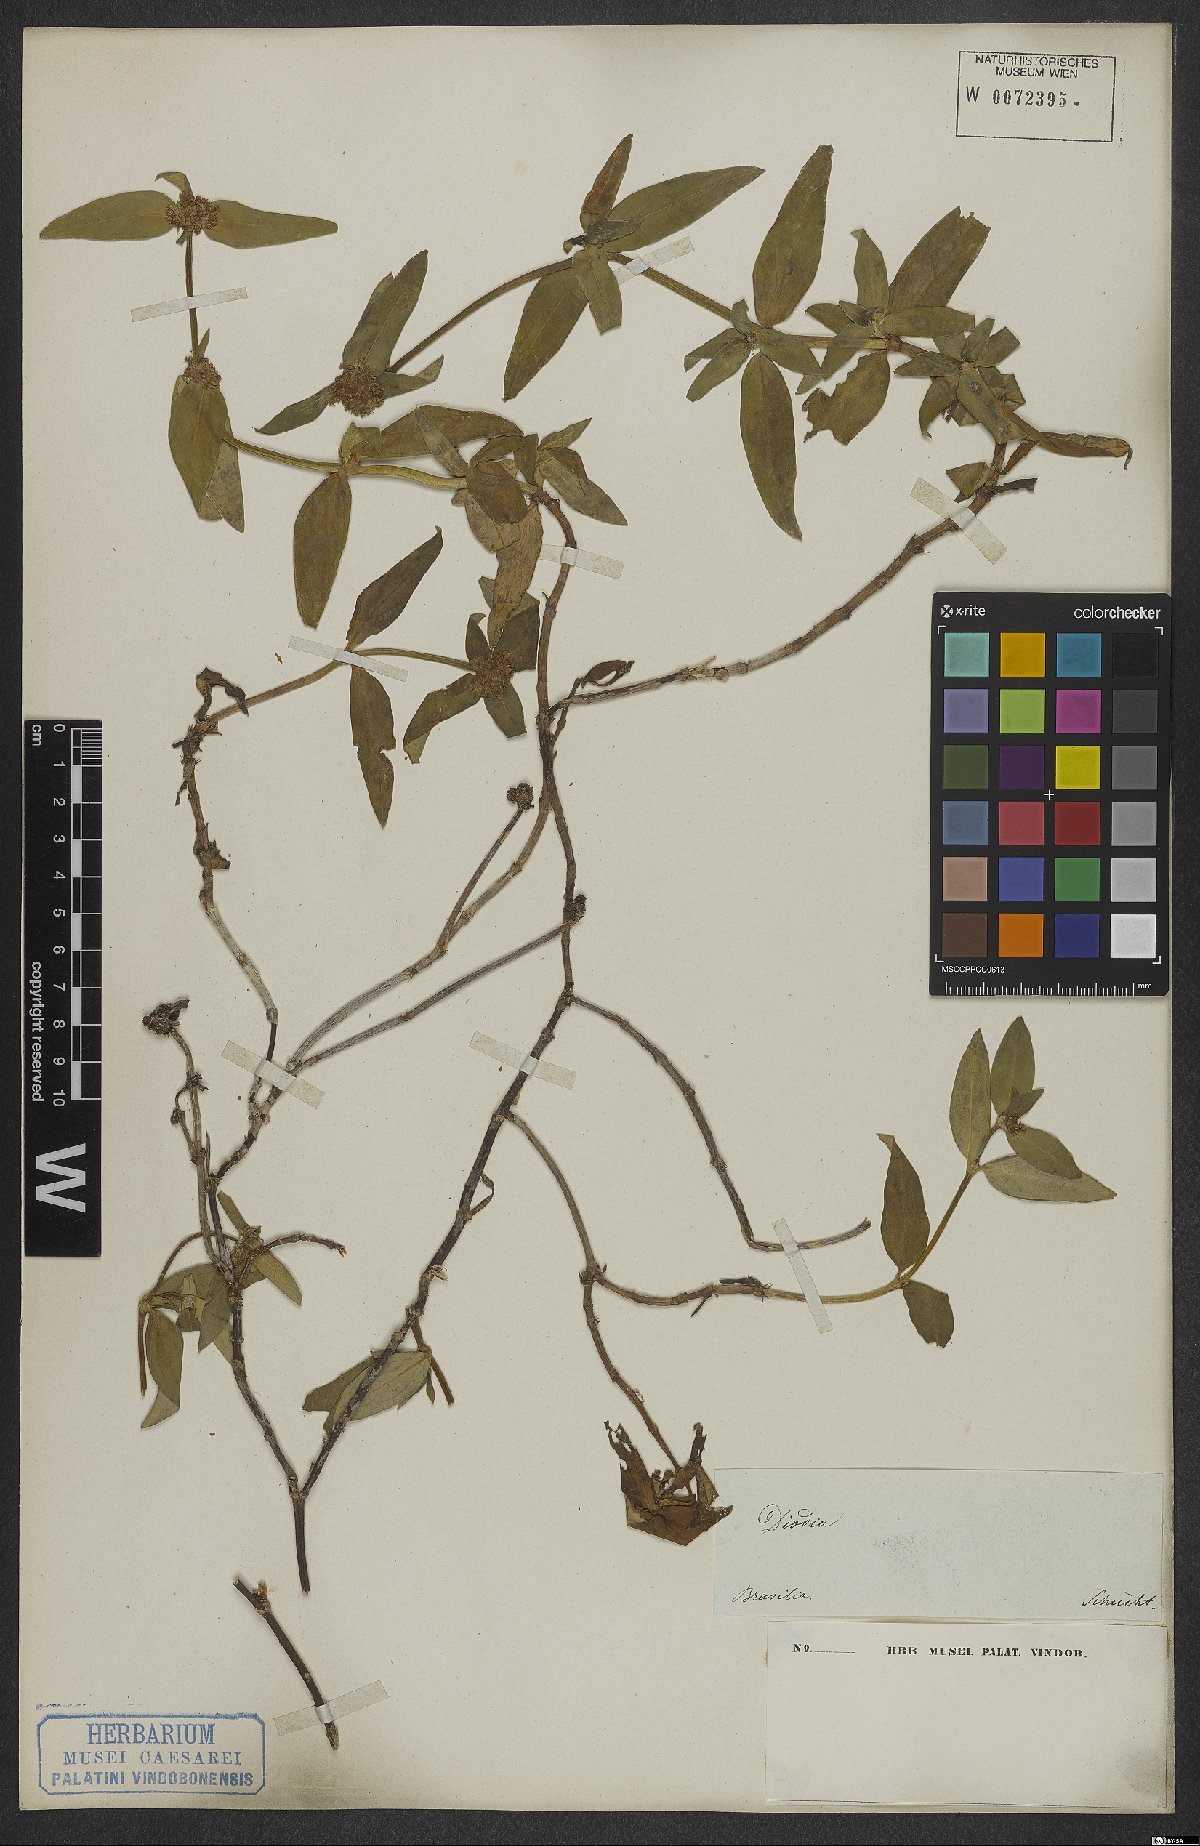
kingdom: Plantae
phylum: Tracheophyta
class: Magnoliopsida
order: Gentianales
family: Rubiaceae
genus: Mitracarpus
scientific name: Mitracarpus lhotzkyanus
